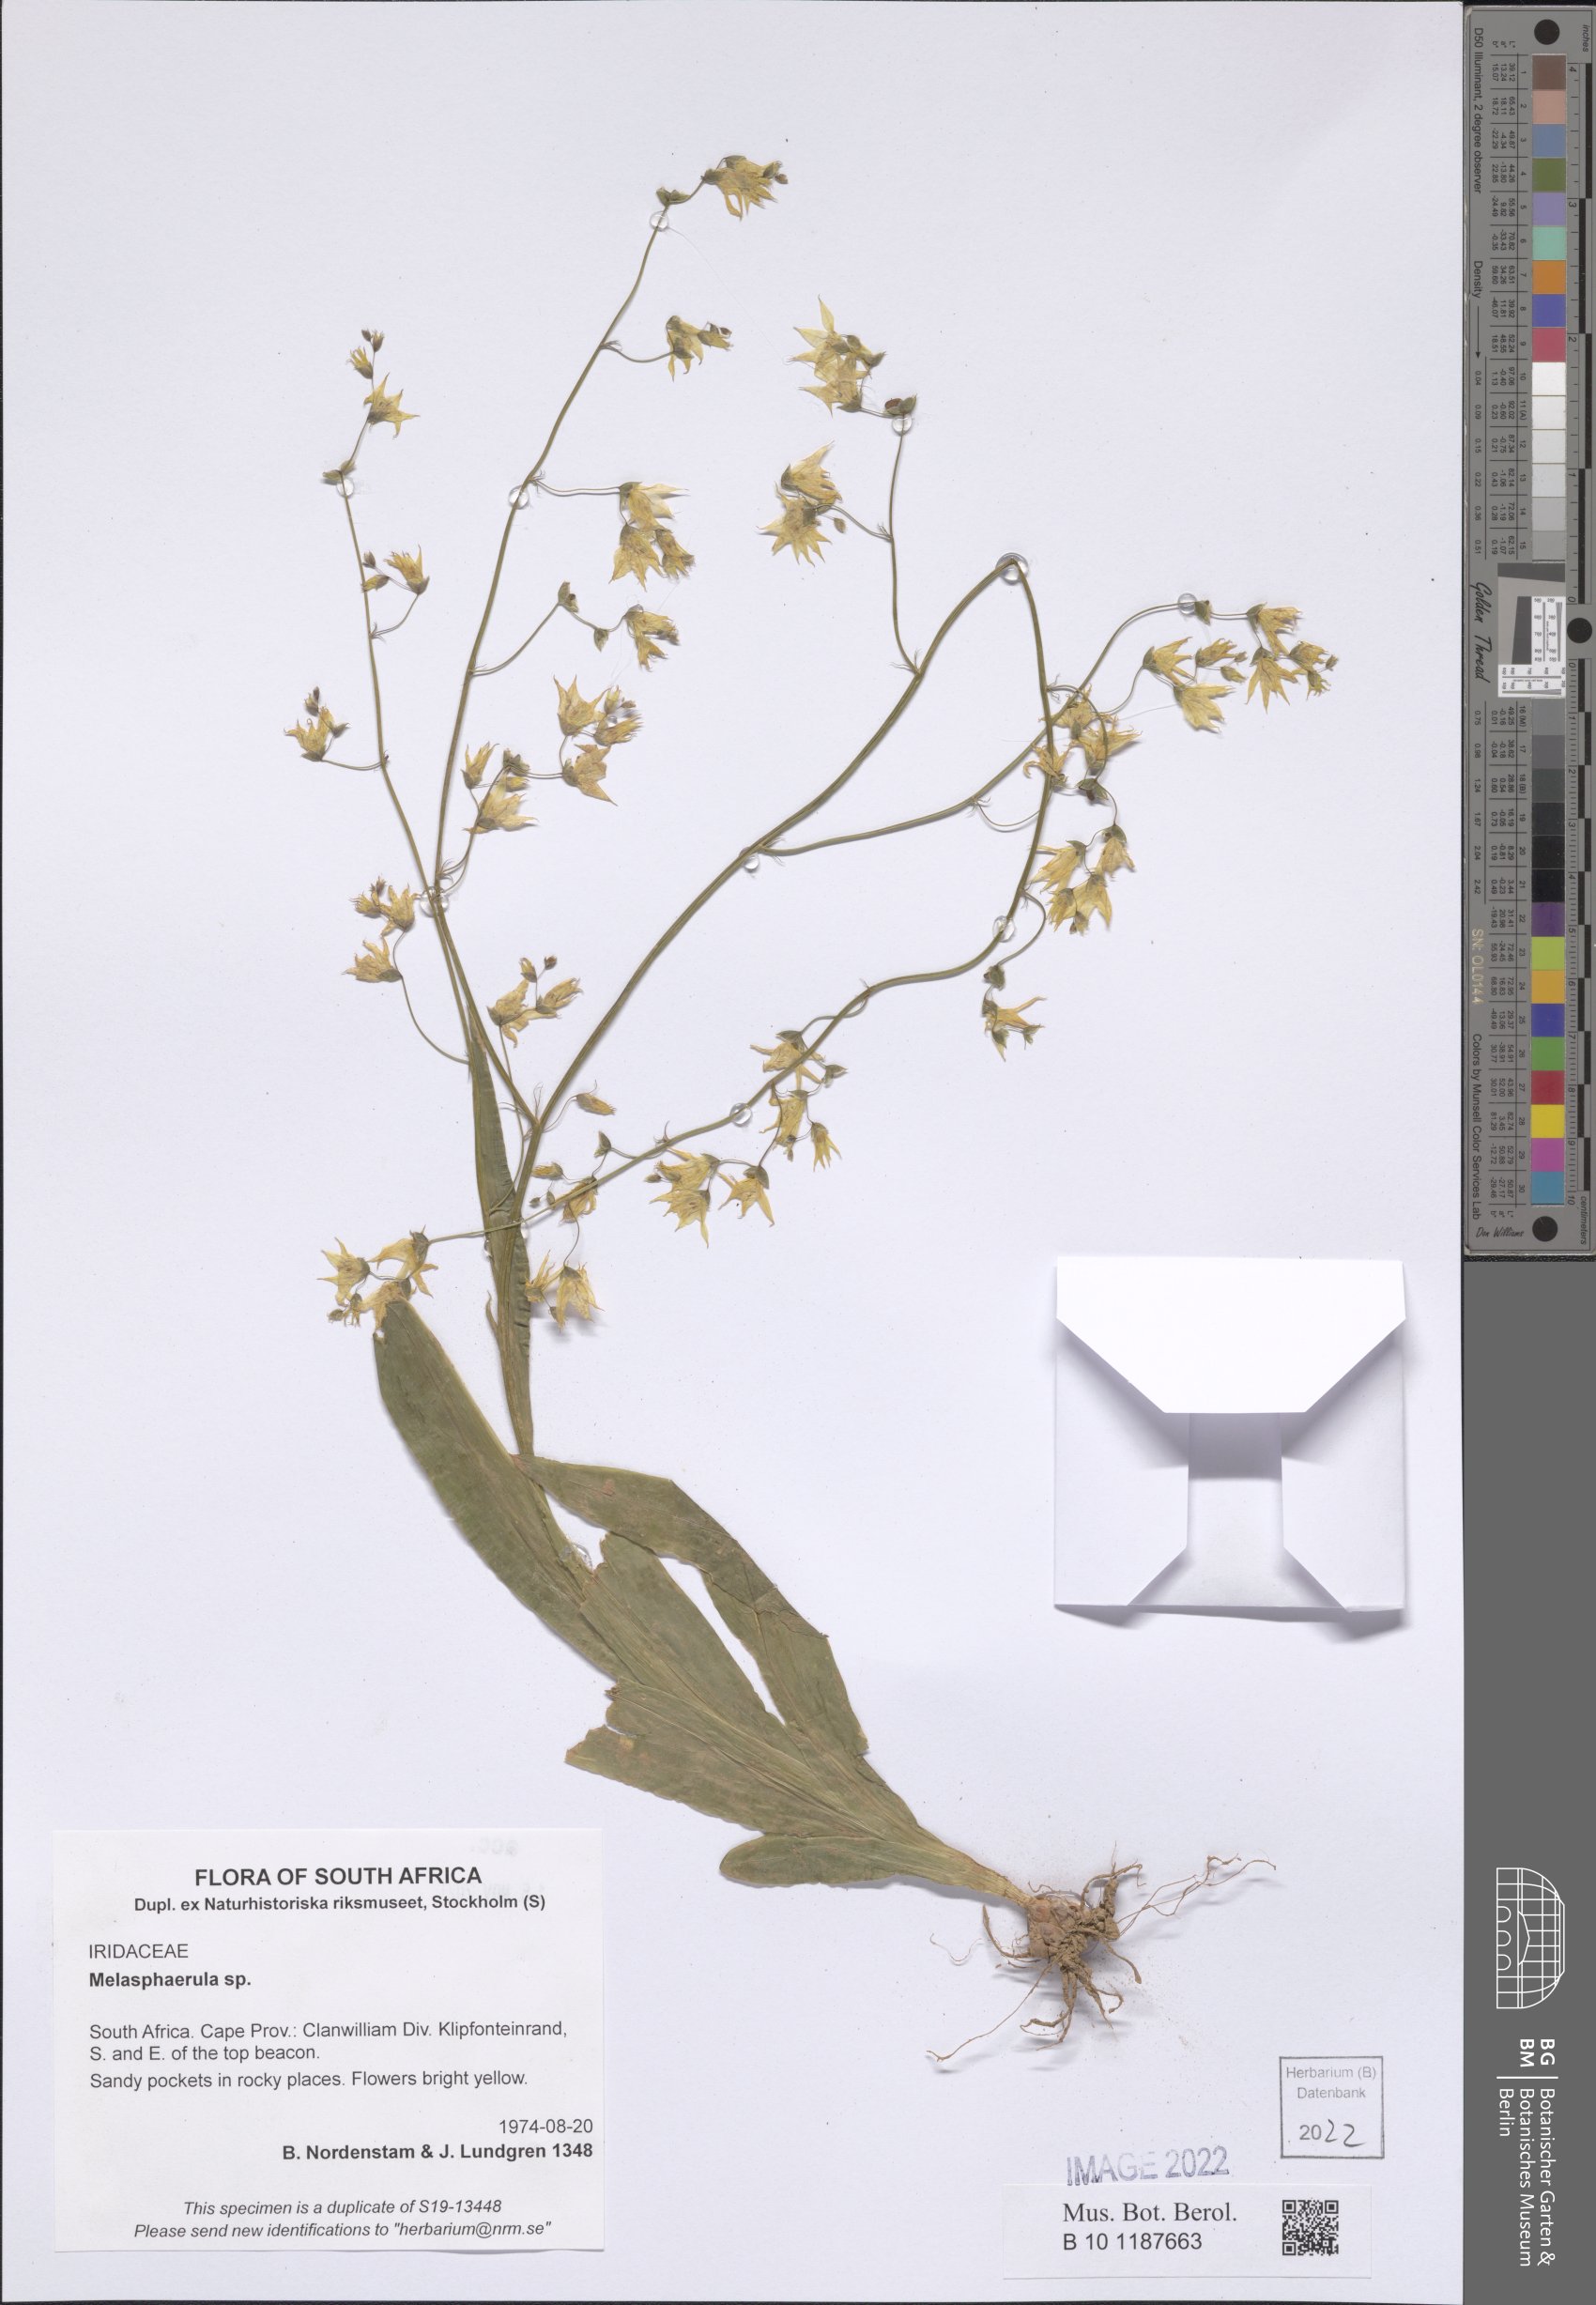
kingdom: Plantae
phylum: Tracheophyta
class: Liliopsida
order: Asparagales
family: Iridaceae
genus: Melasphaerula
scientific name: Melasphaerula
